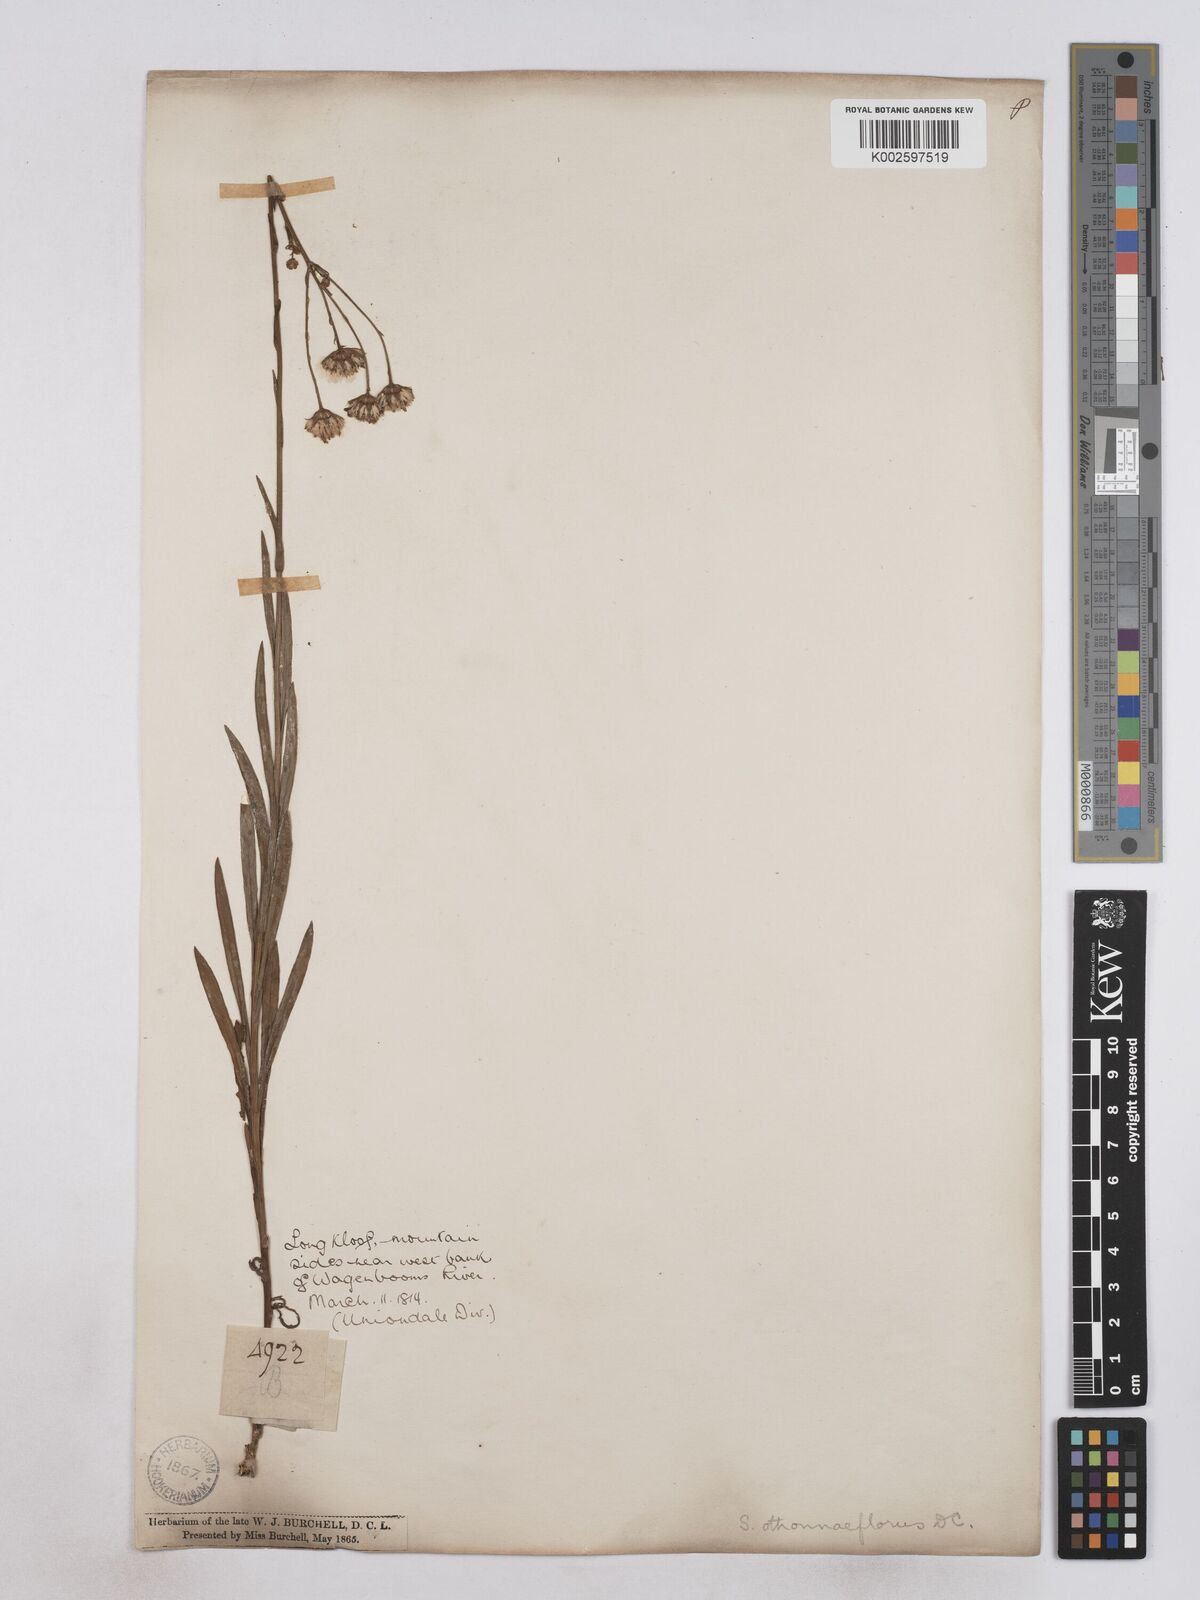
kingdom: Plantae
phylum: Tracheophyta
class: Magnoliopsida
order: Asterales
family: Asteraceae
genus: Senecio
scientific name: Senecio othonniflorus
